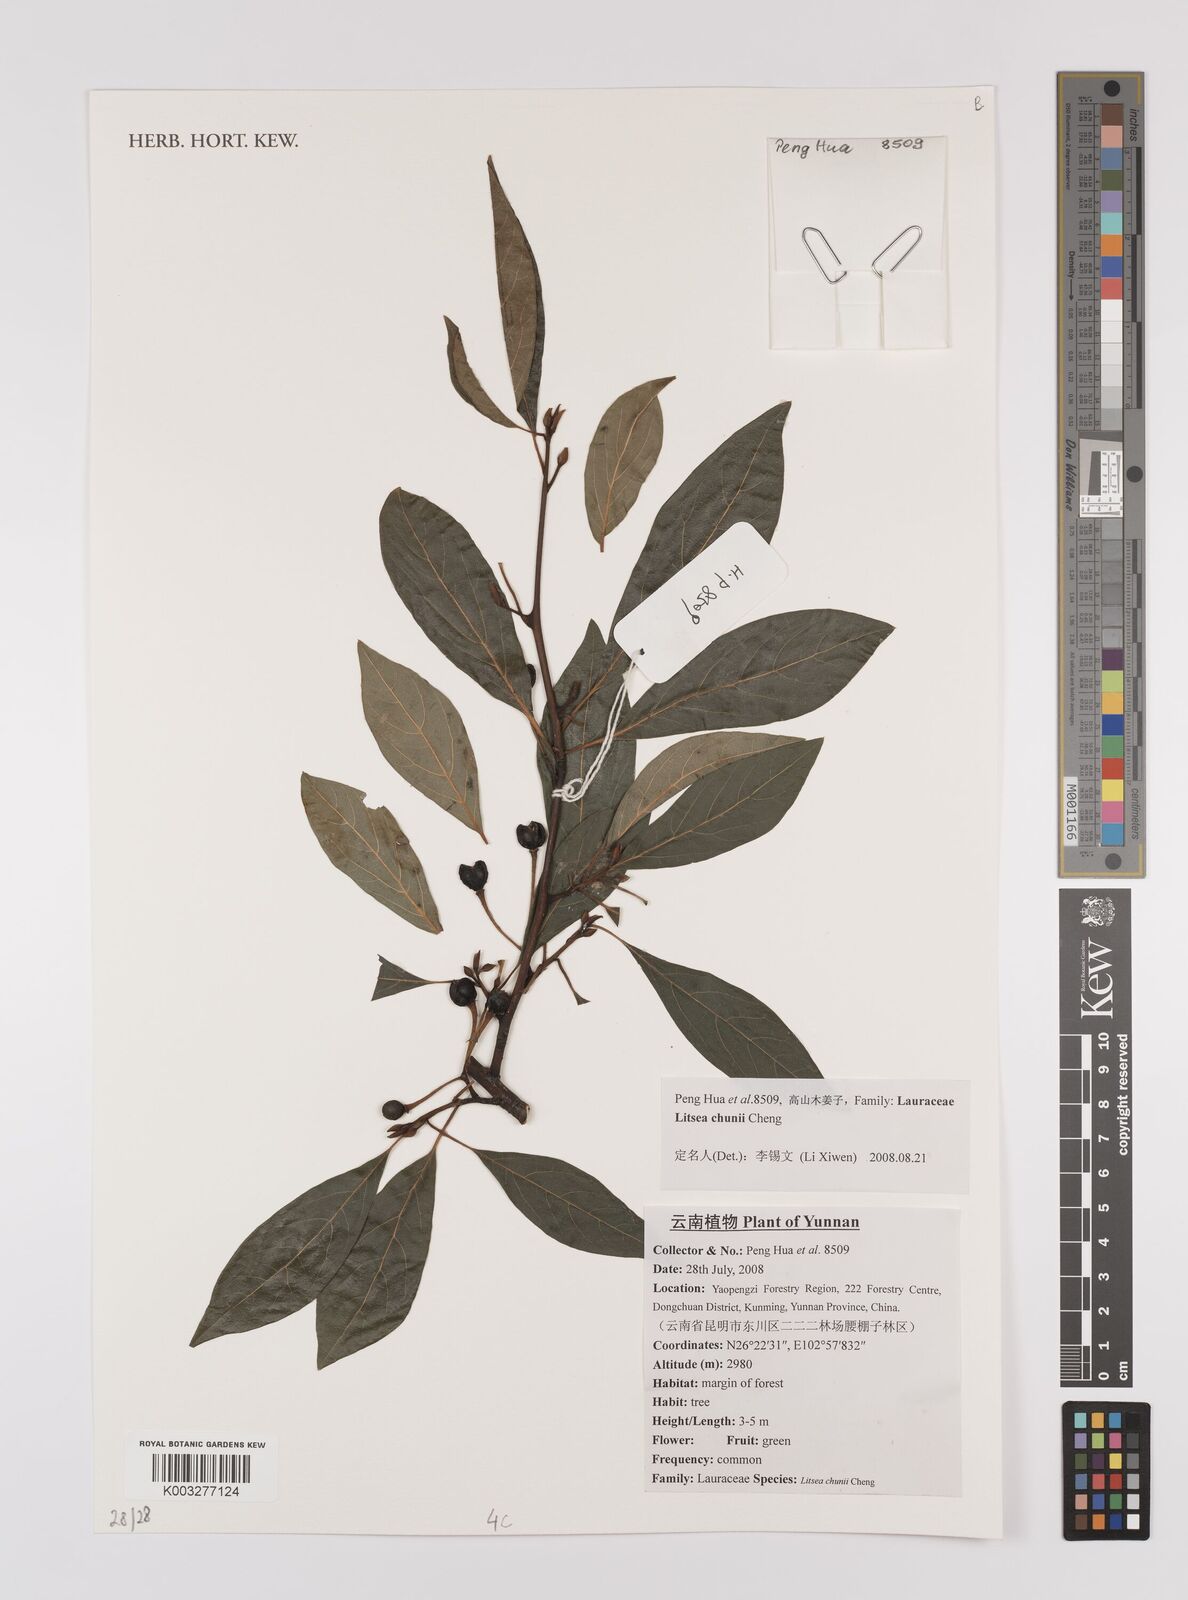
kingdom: Plantae
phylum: Tracheophyta
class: Magnoliopsida
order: Laurales
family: Lauraceae
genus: Litsea
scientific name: Litsea chunii
